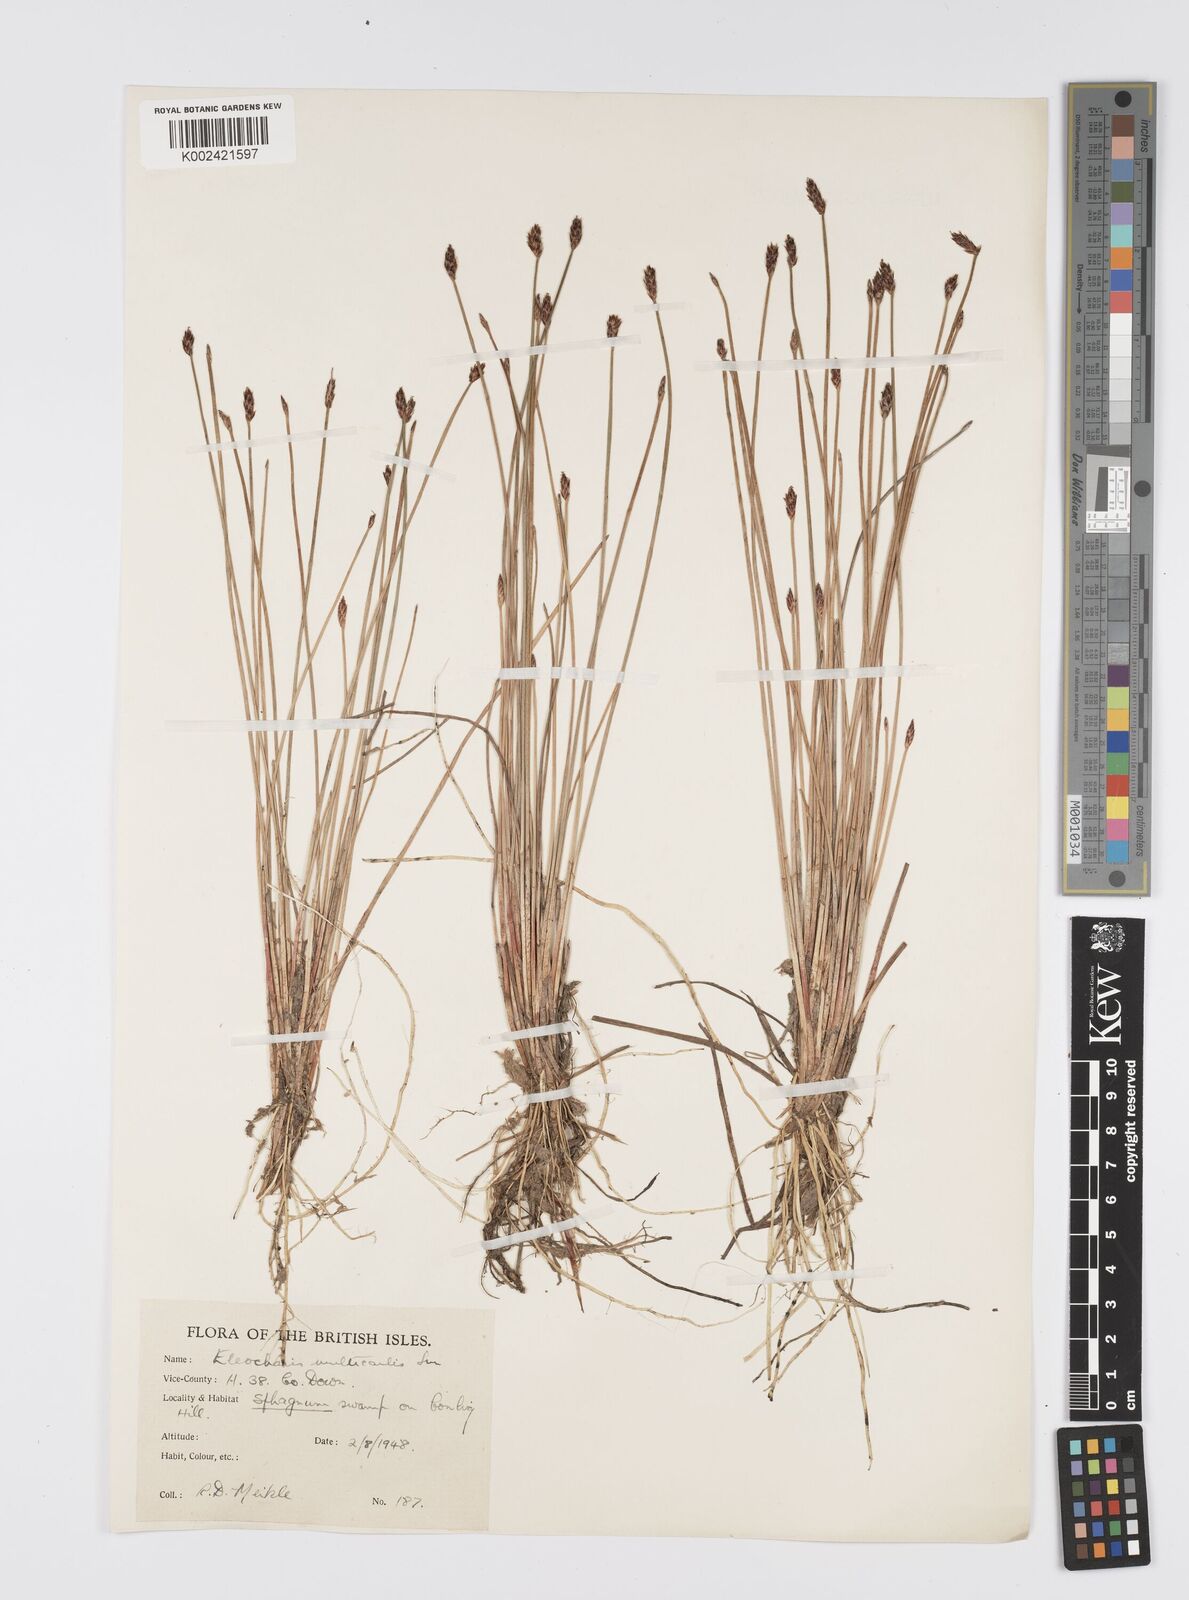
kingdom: Plantae
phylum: Tracheophyta
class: Liliopsida
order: Poales
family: Cyperaceae
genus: Eleocharis
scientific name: Eleocharis multicaulis
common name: Many-stalked spike-rush
